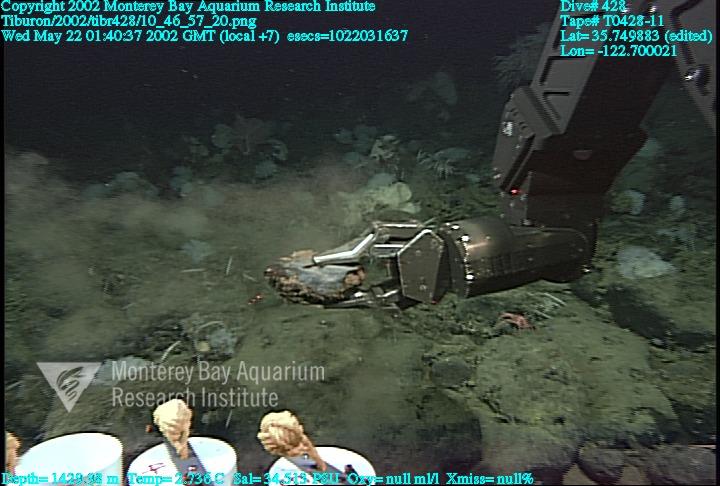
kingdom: Animalia
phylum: Porifera
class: Hexactinellida
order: Sceptrulophora
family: Farreidae
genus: Farrea
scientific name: Farrea occa
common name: Reversed glass sponge
